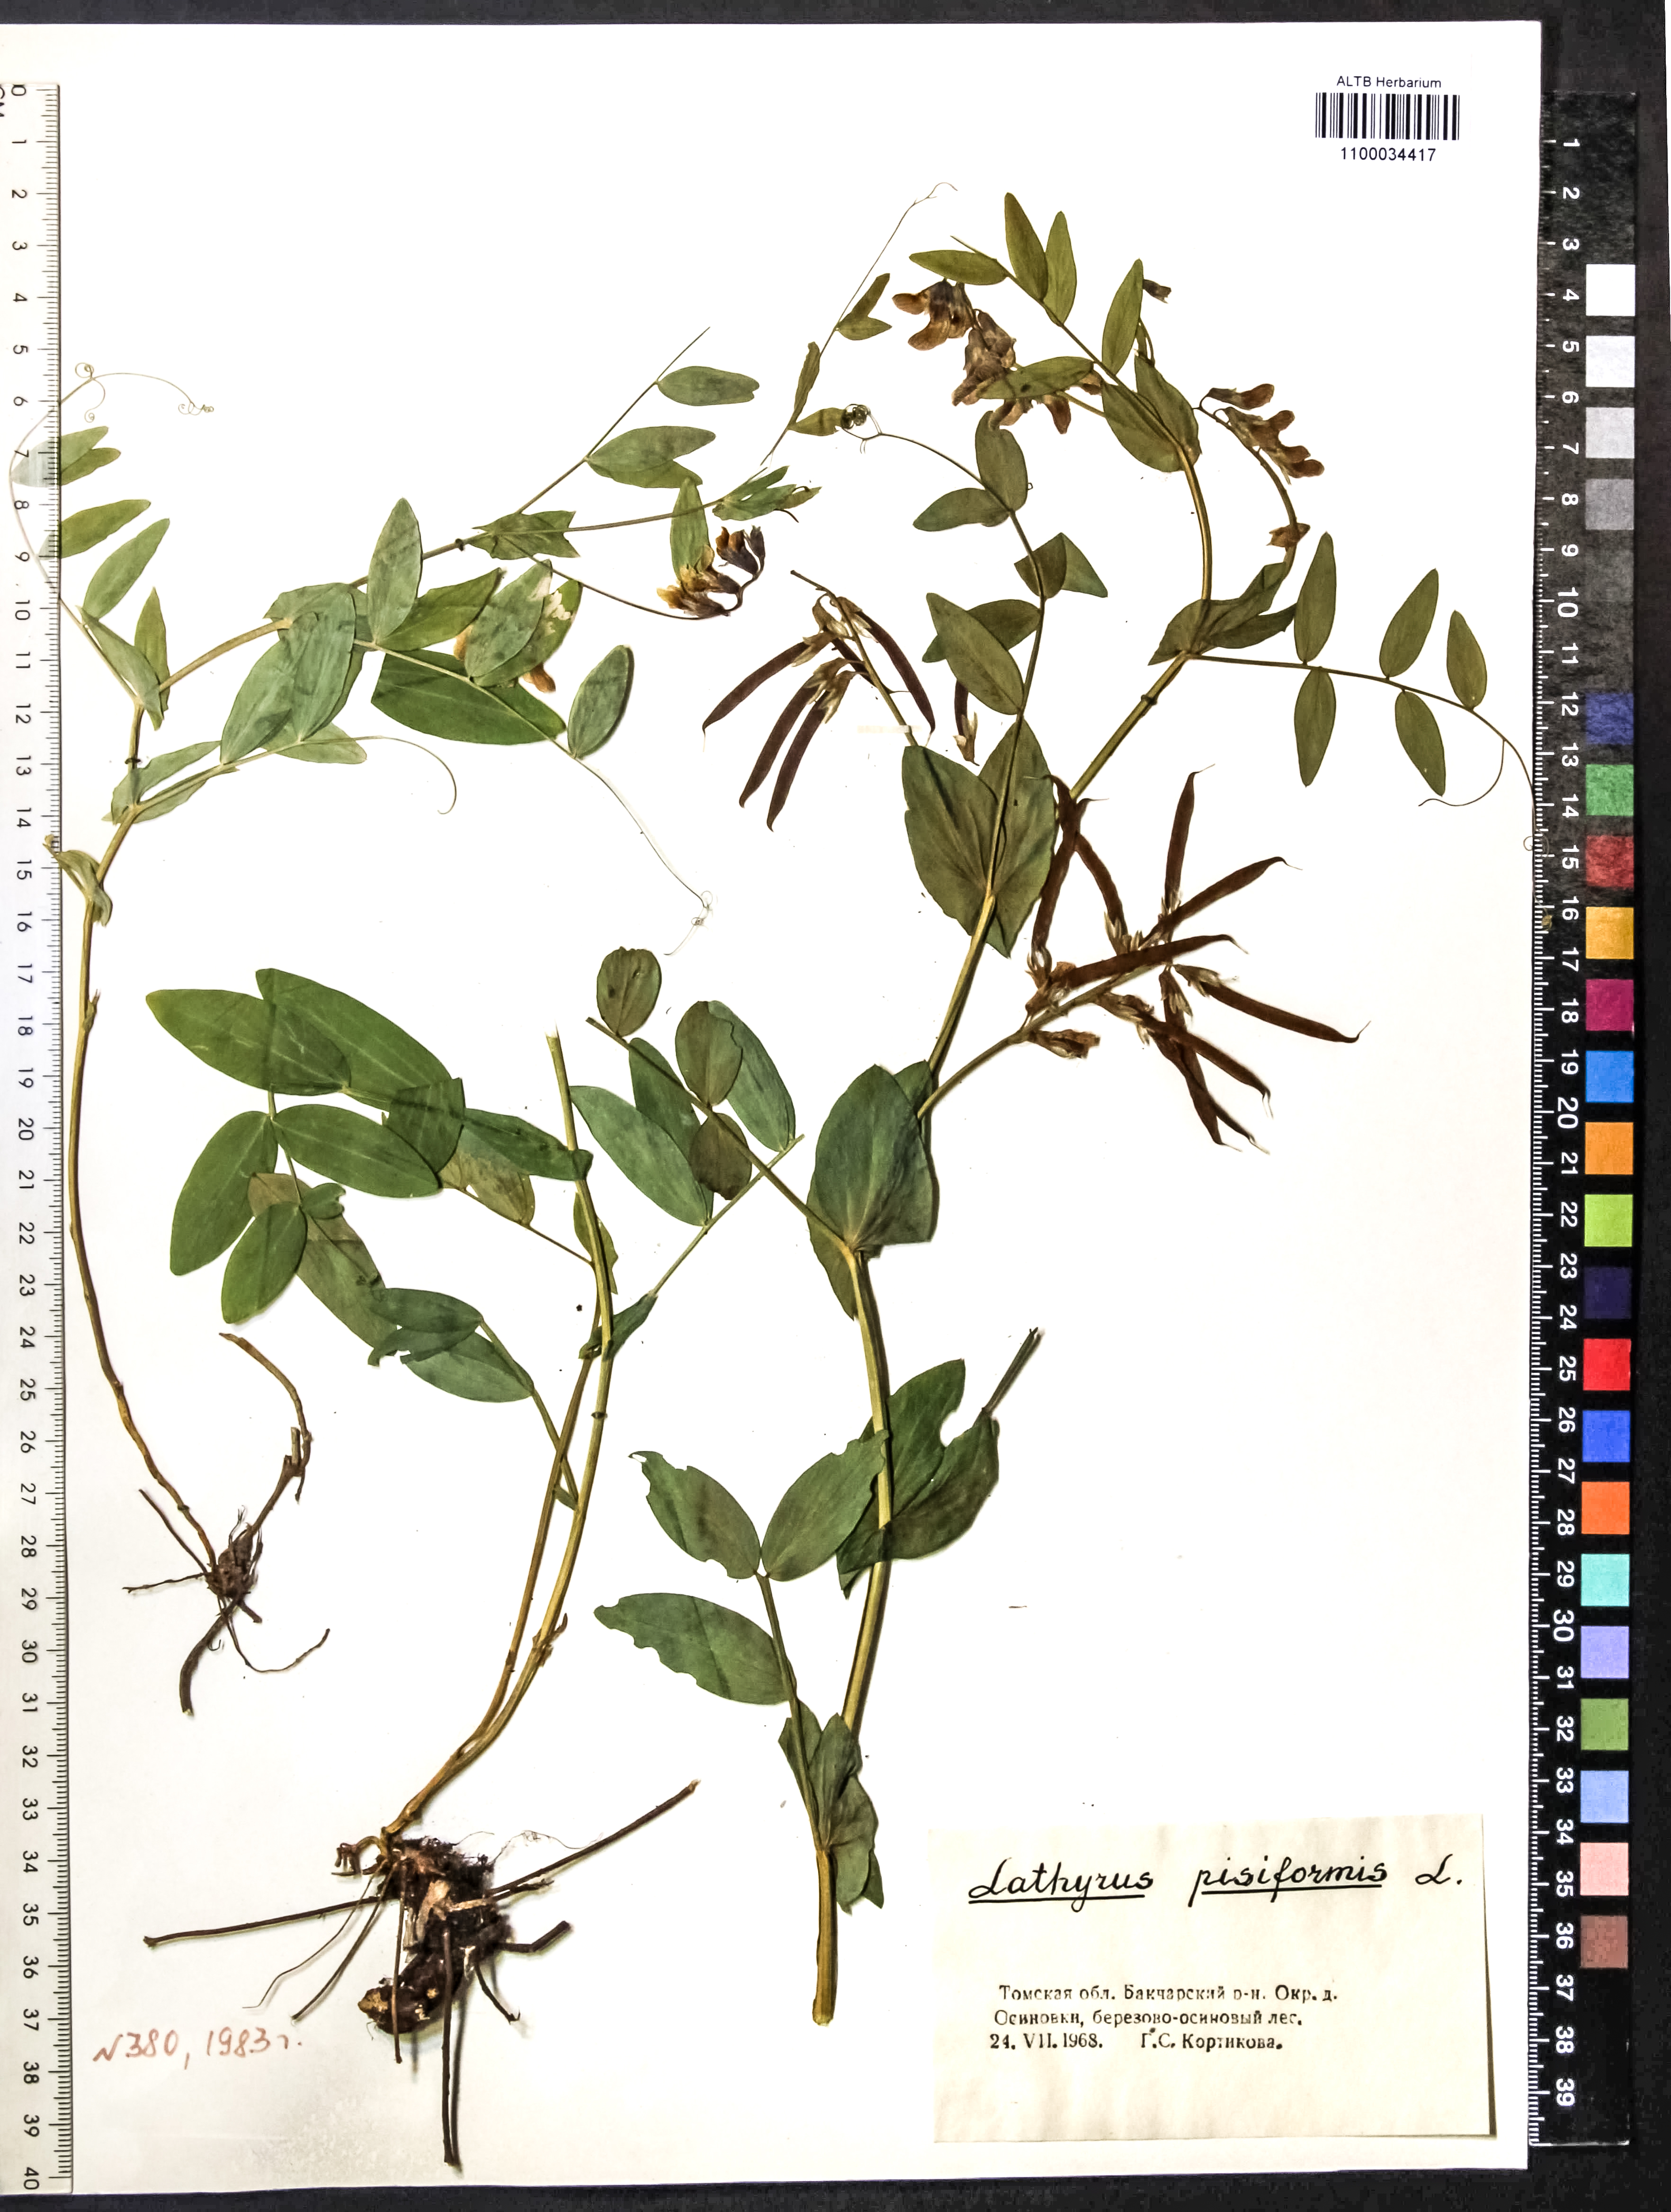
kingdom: Plantae
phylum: Tracheophyta
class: Magnoliopsida
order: Fabales
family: Fabaceae
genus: Lathyrus
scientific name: Lathyrus pisiformis
